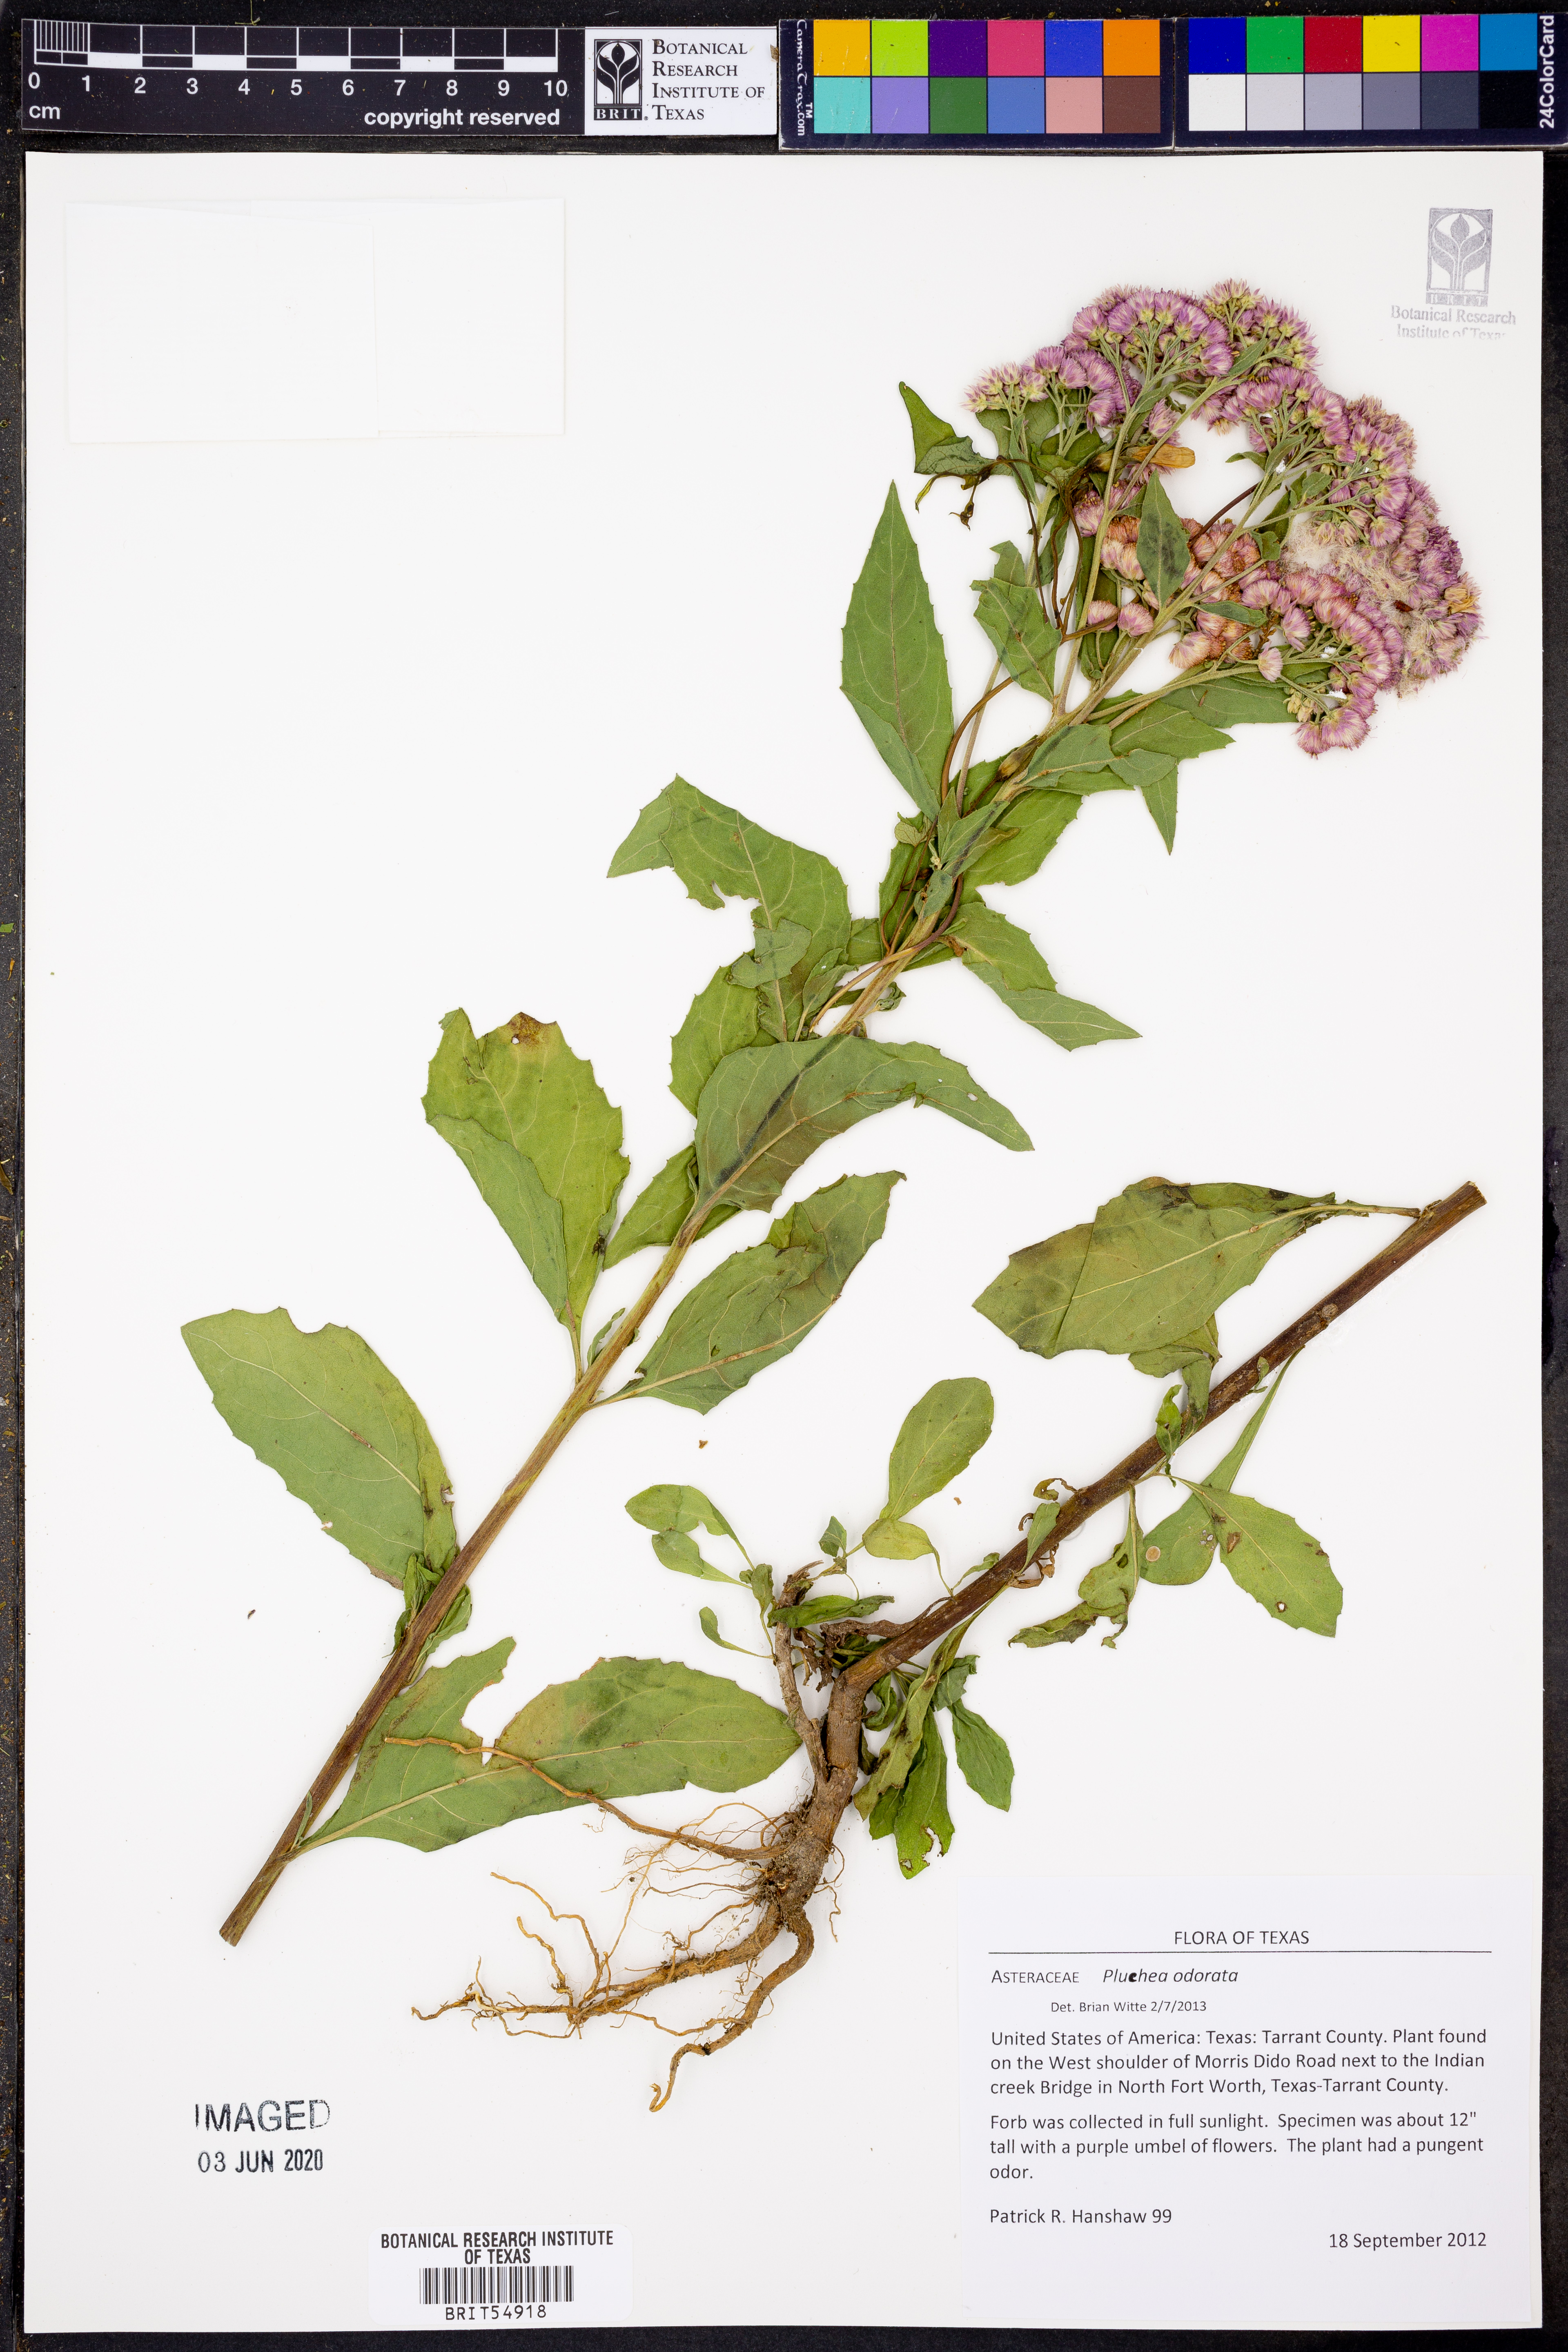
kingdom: Plantae
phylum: Tracheophyta
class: Magnoliopsida
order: Asterales
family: Asteraceae
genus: Pluchea
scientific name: Pluchea odorata
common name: Saltmarsh fleabane
